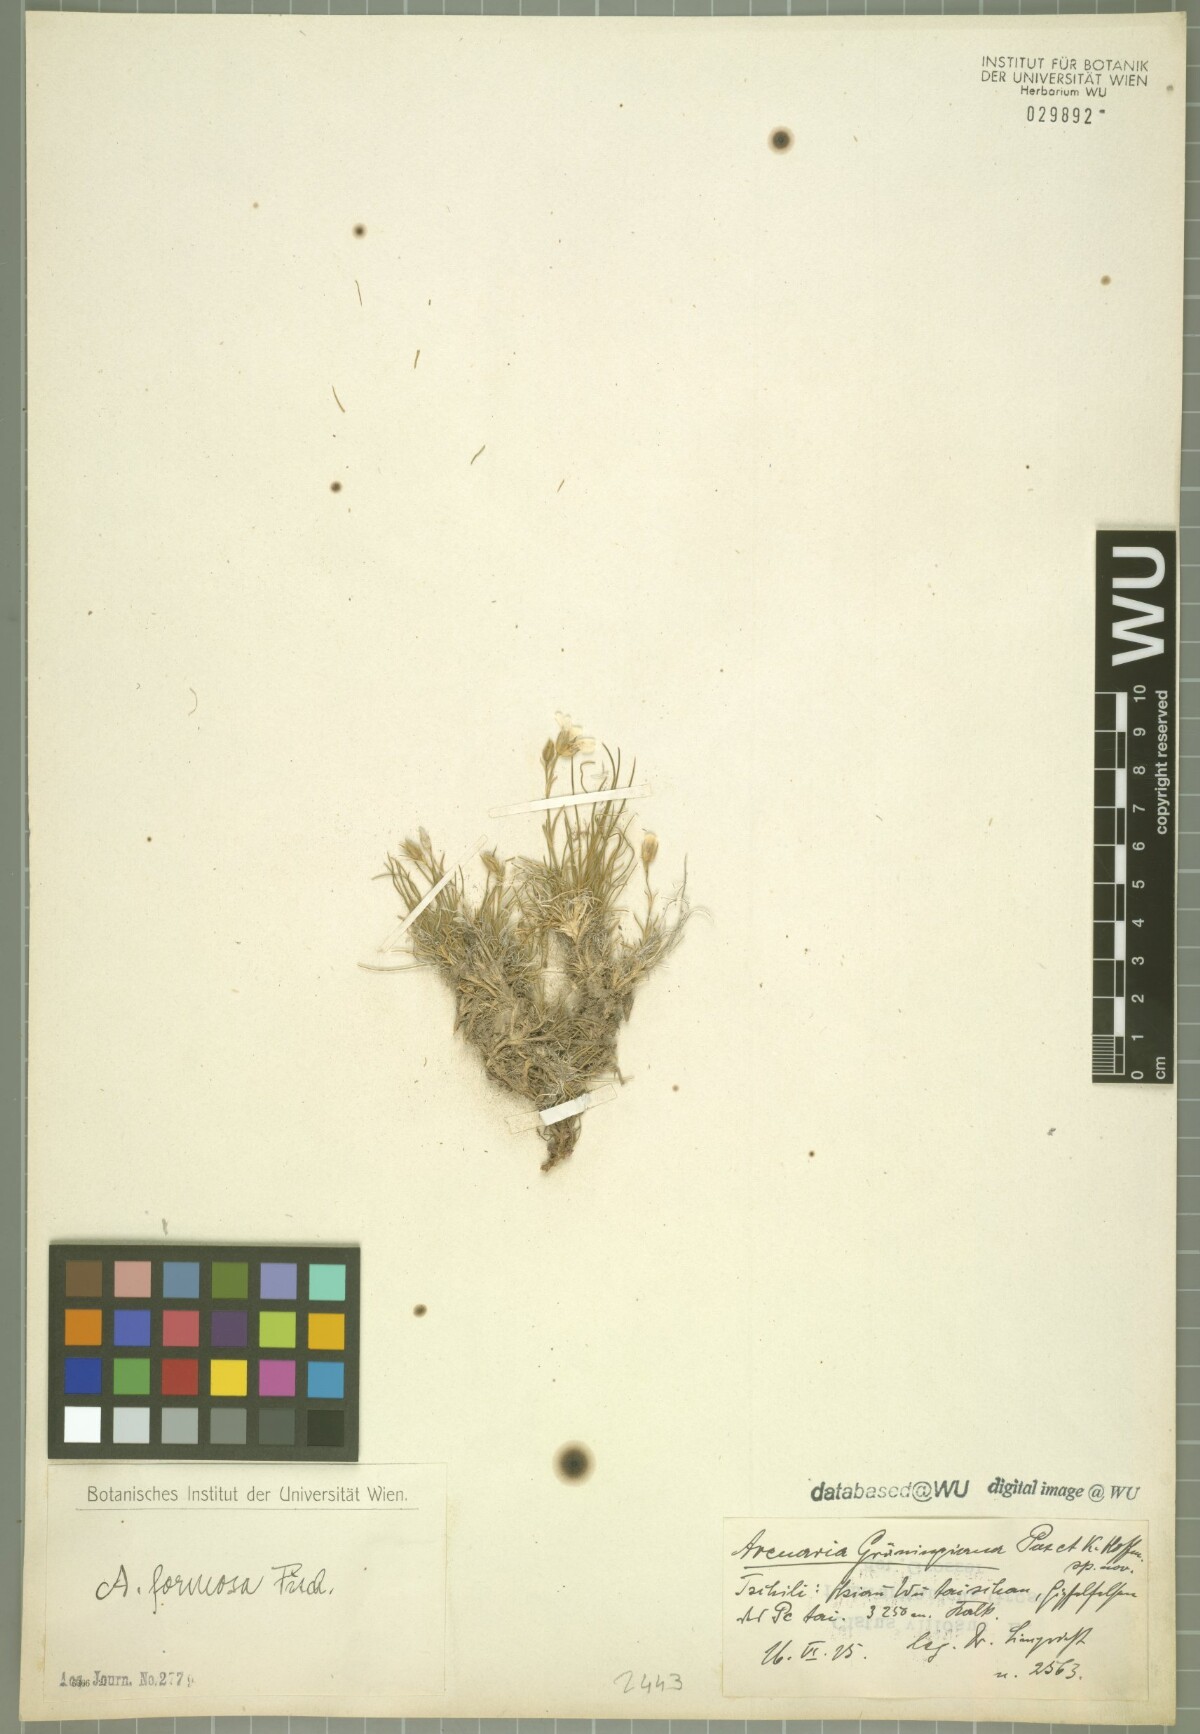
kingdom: Plantae
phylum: Tracheophyta
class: Magnoliopsida
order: Caryophyllales
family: Caryophyllaceae
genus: Eremogone
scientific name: Eremogone grueningiana
